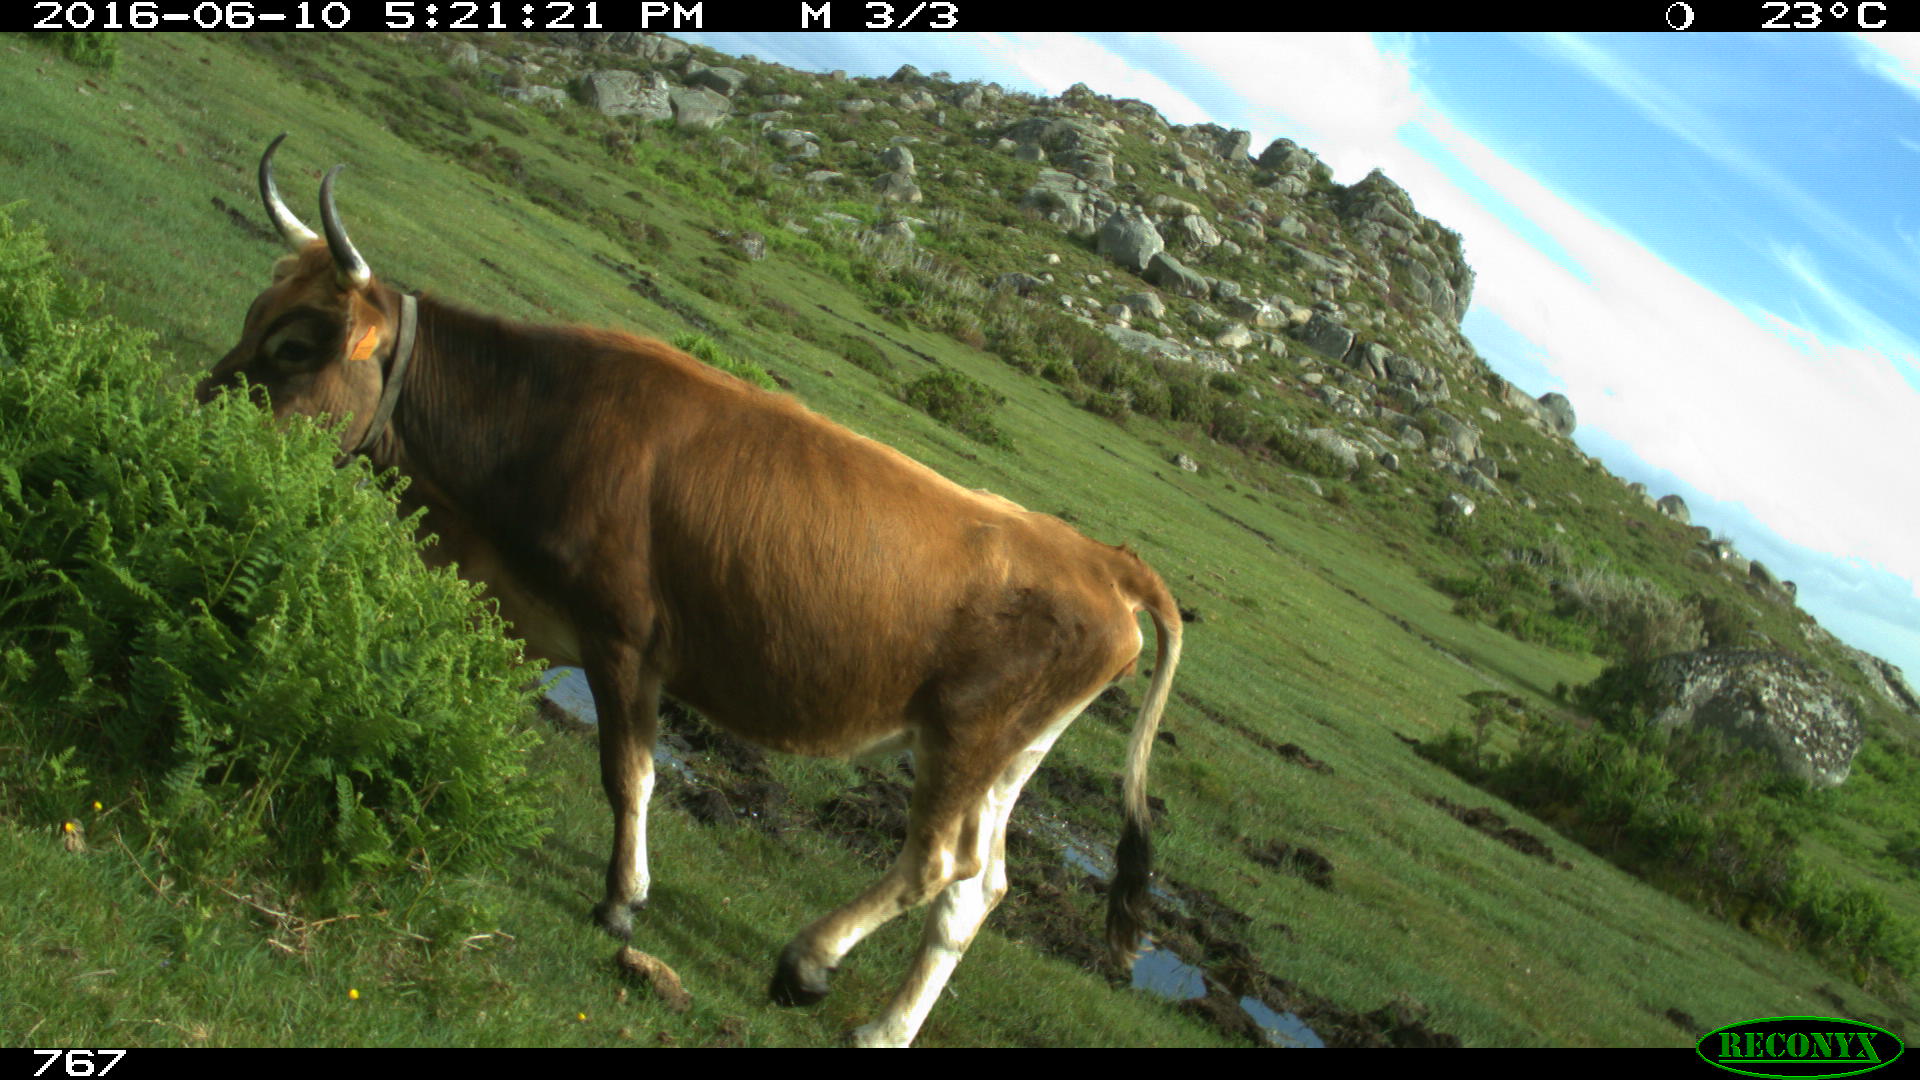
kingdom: Animalia
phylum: Chordata
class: Mammalia
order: Artiodactyla
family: Bovidae
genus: Bos
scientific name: Bos taurus
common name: Domesticated cattle
